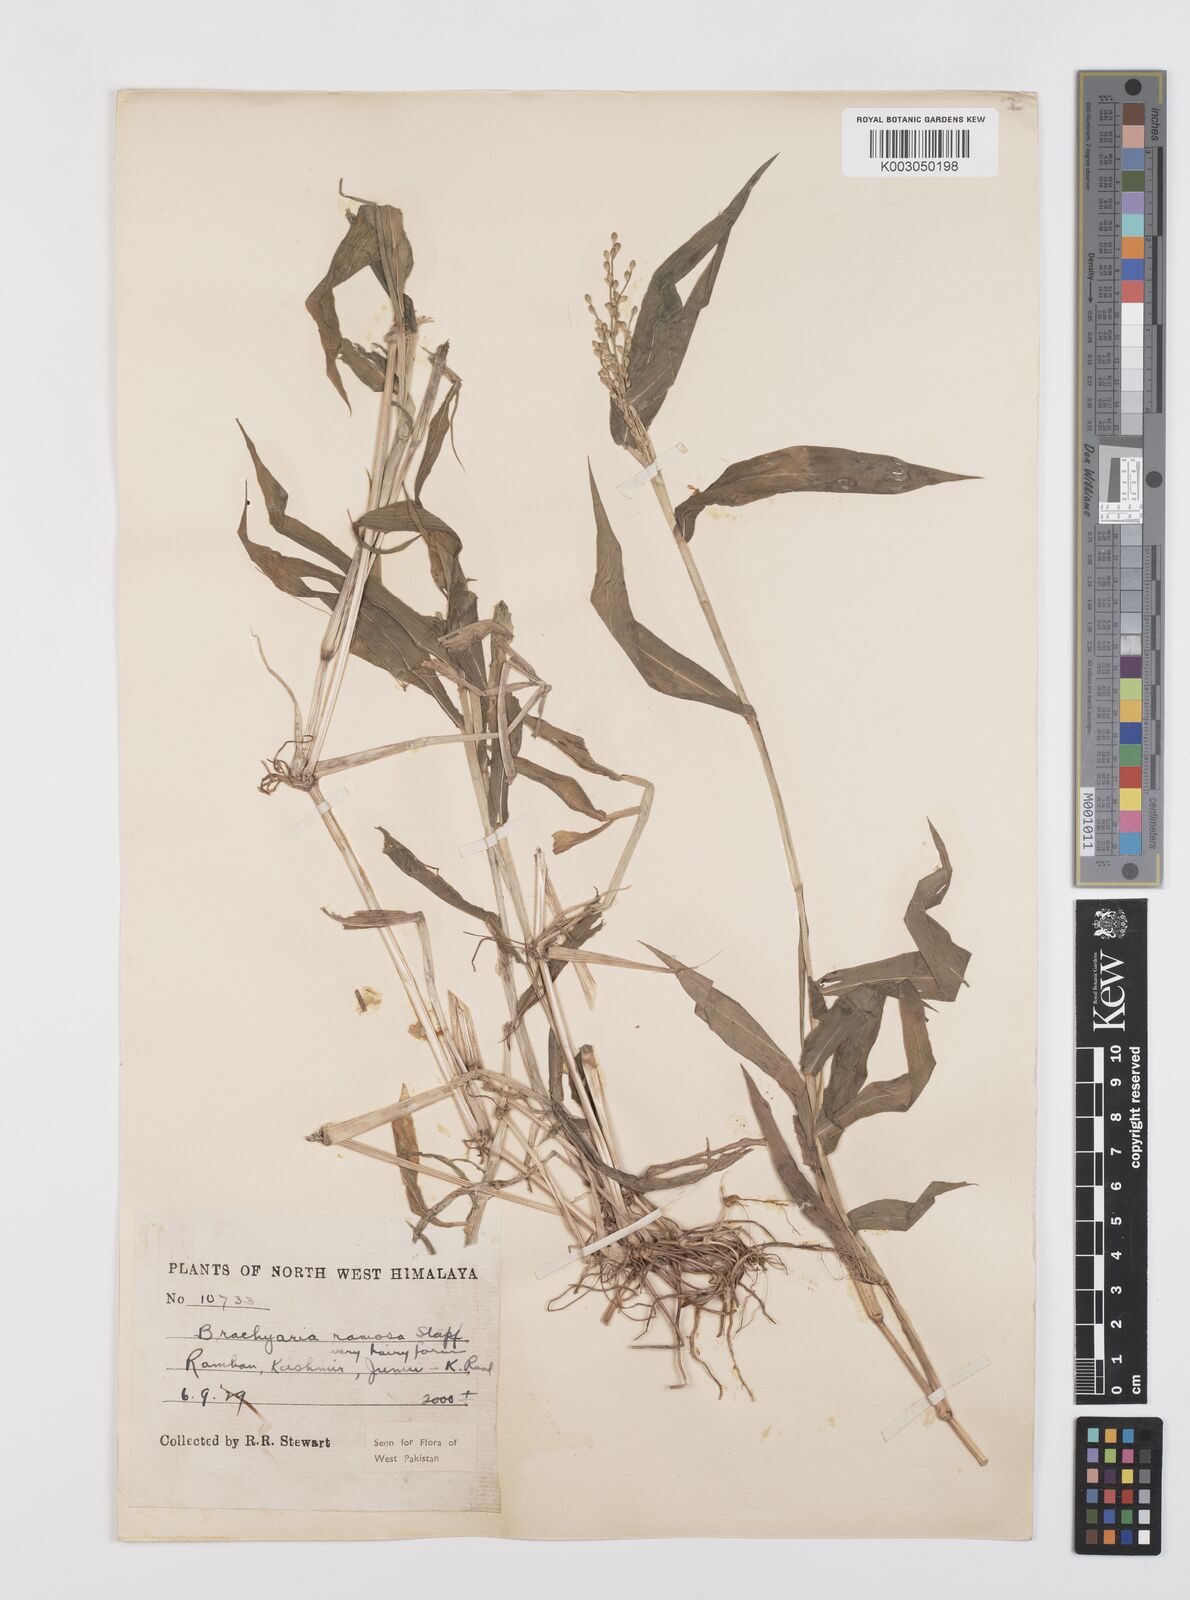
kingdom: Plantae
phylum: Tracheophyta
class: Liliopsida
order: Poales
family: Poaceae
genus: Urochloa
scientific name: Urochloa ramosa
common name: Browntop millet
